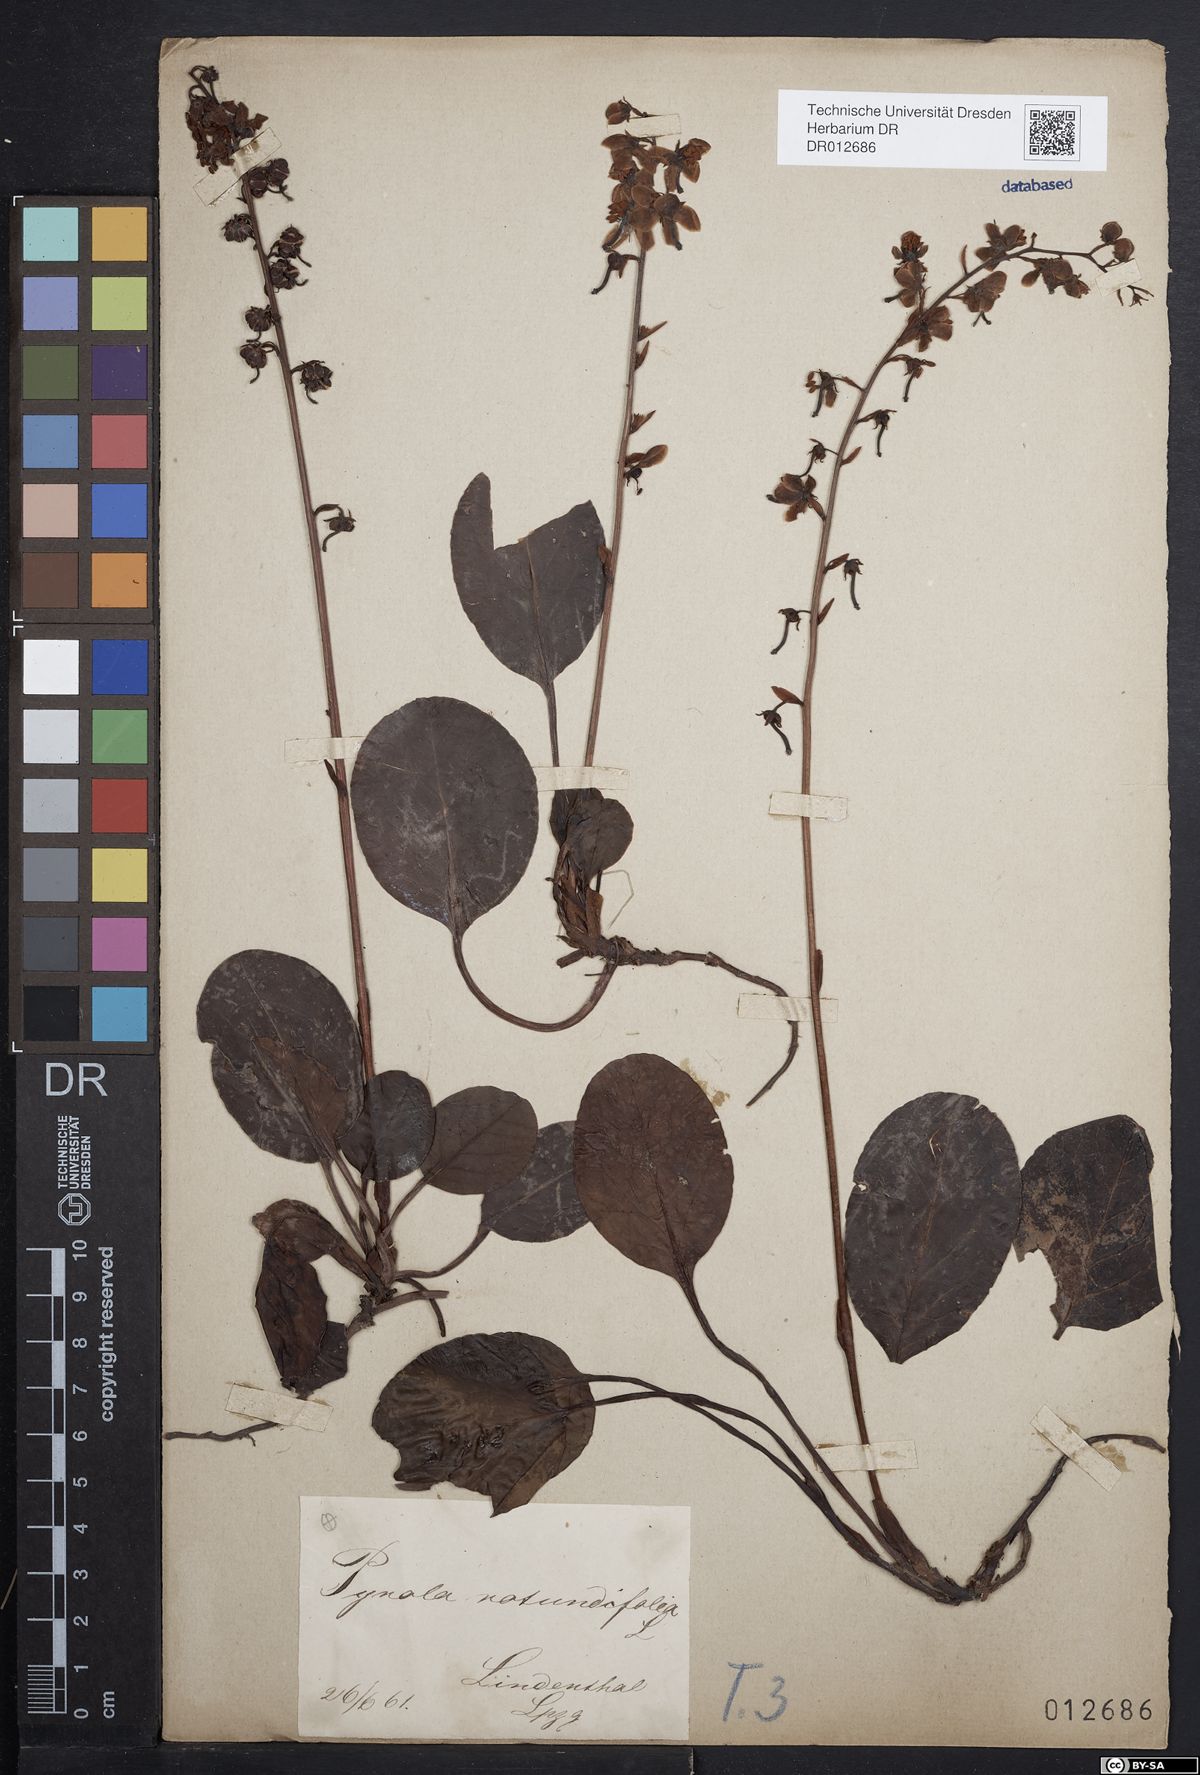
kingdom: Plantae
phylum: Tracheophyta
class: Magnoliopsida
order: Ericales
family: Ericaceae
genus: Pyrola
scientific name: Pyrola rotundifolia
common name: Round-leaved wintergreen
